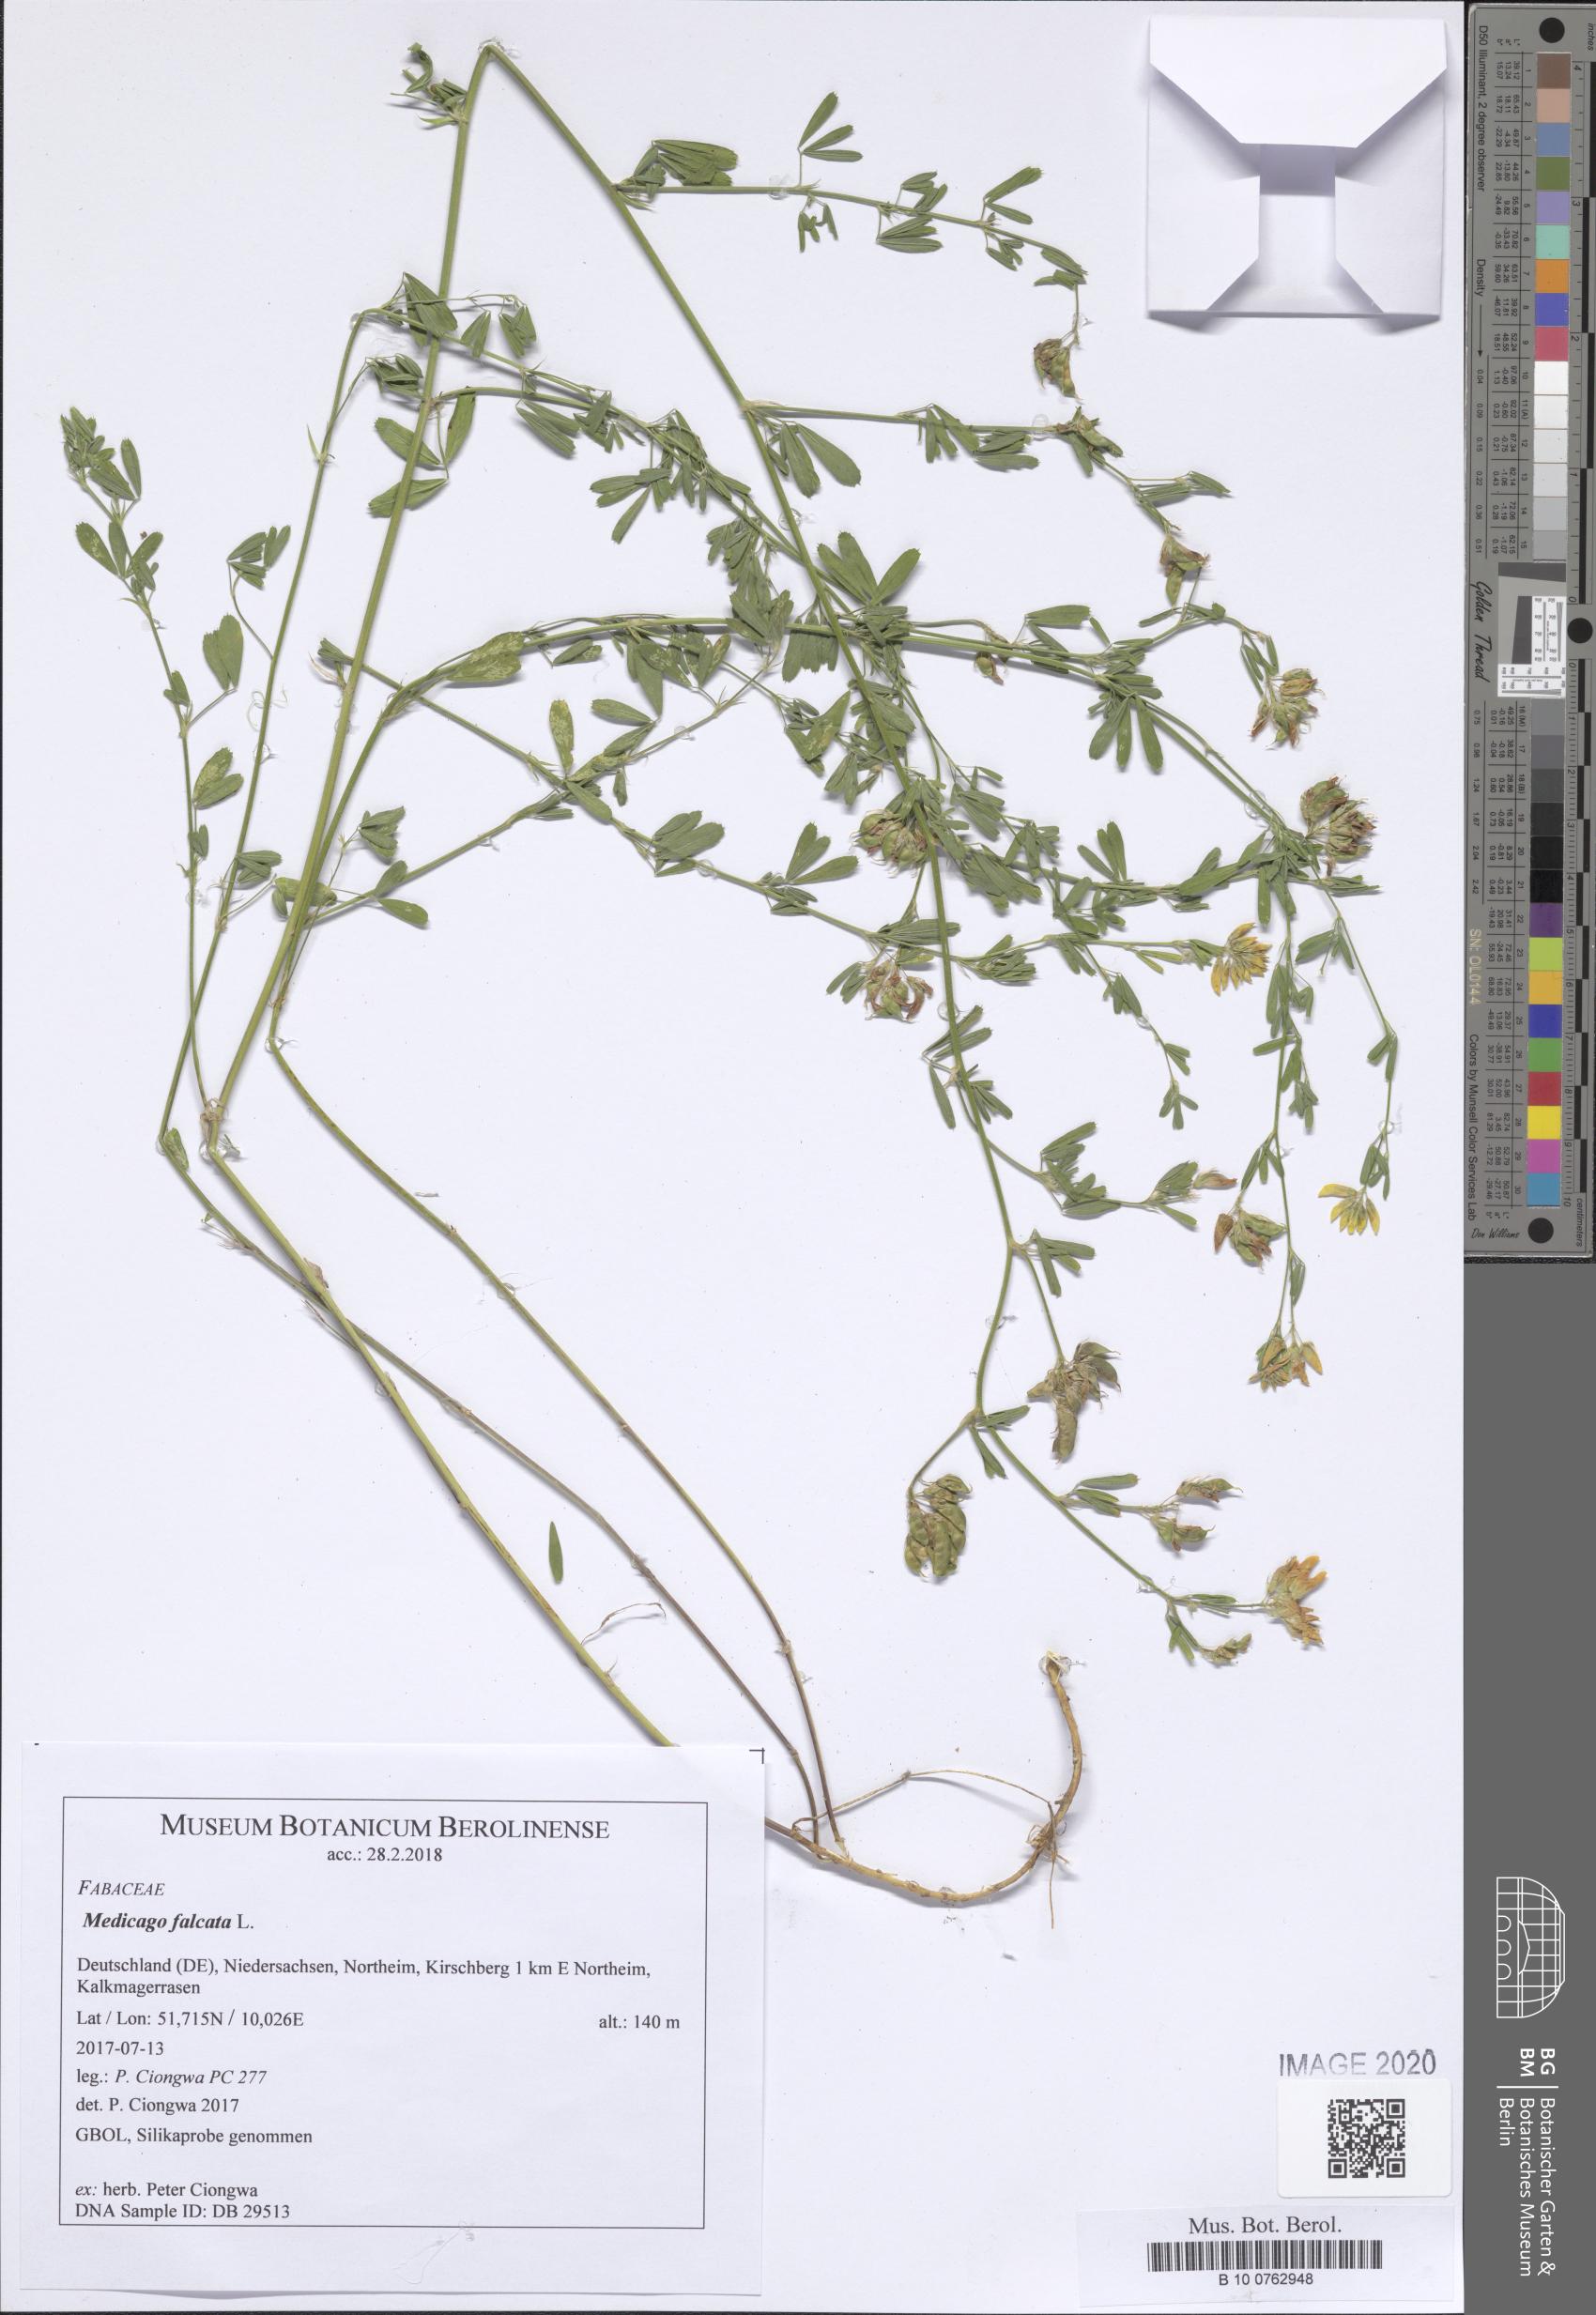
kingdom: Plantae
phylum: Tracheophyta
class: Magnoliopsida
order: Fabales
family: Fabaceae
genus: Medicago
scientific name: Medicago falcata
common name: Sickle medick
